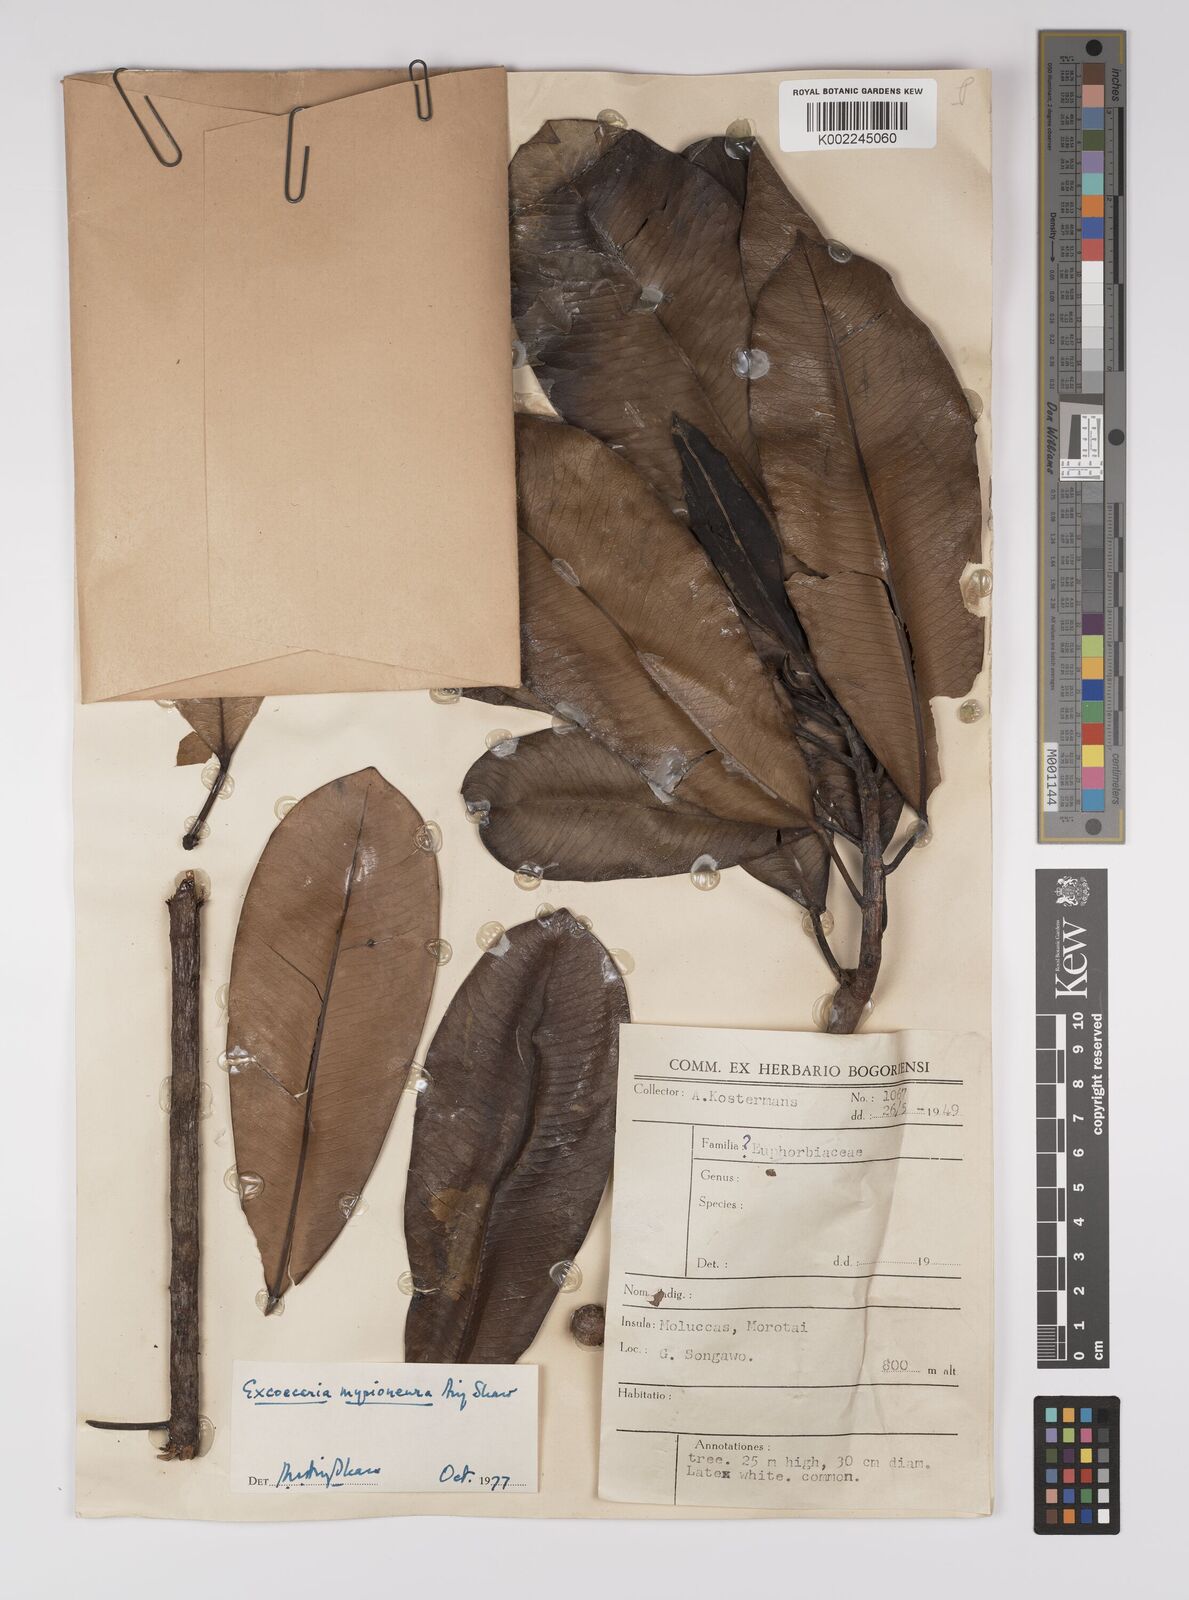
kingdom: Plantae
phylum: Tracheophyta
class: Magnoliopsida
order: Malpighiales
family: Euphorbiaceae
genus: Excoecaria
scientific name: Excoecaria myrioneura
